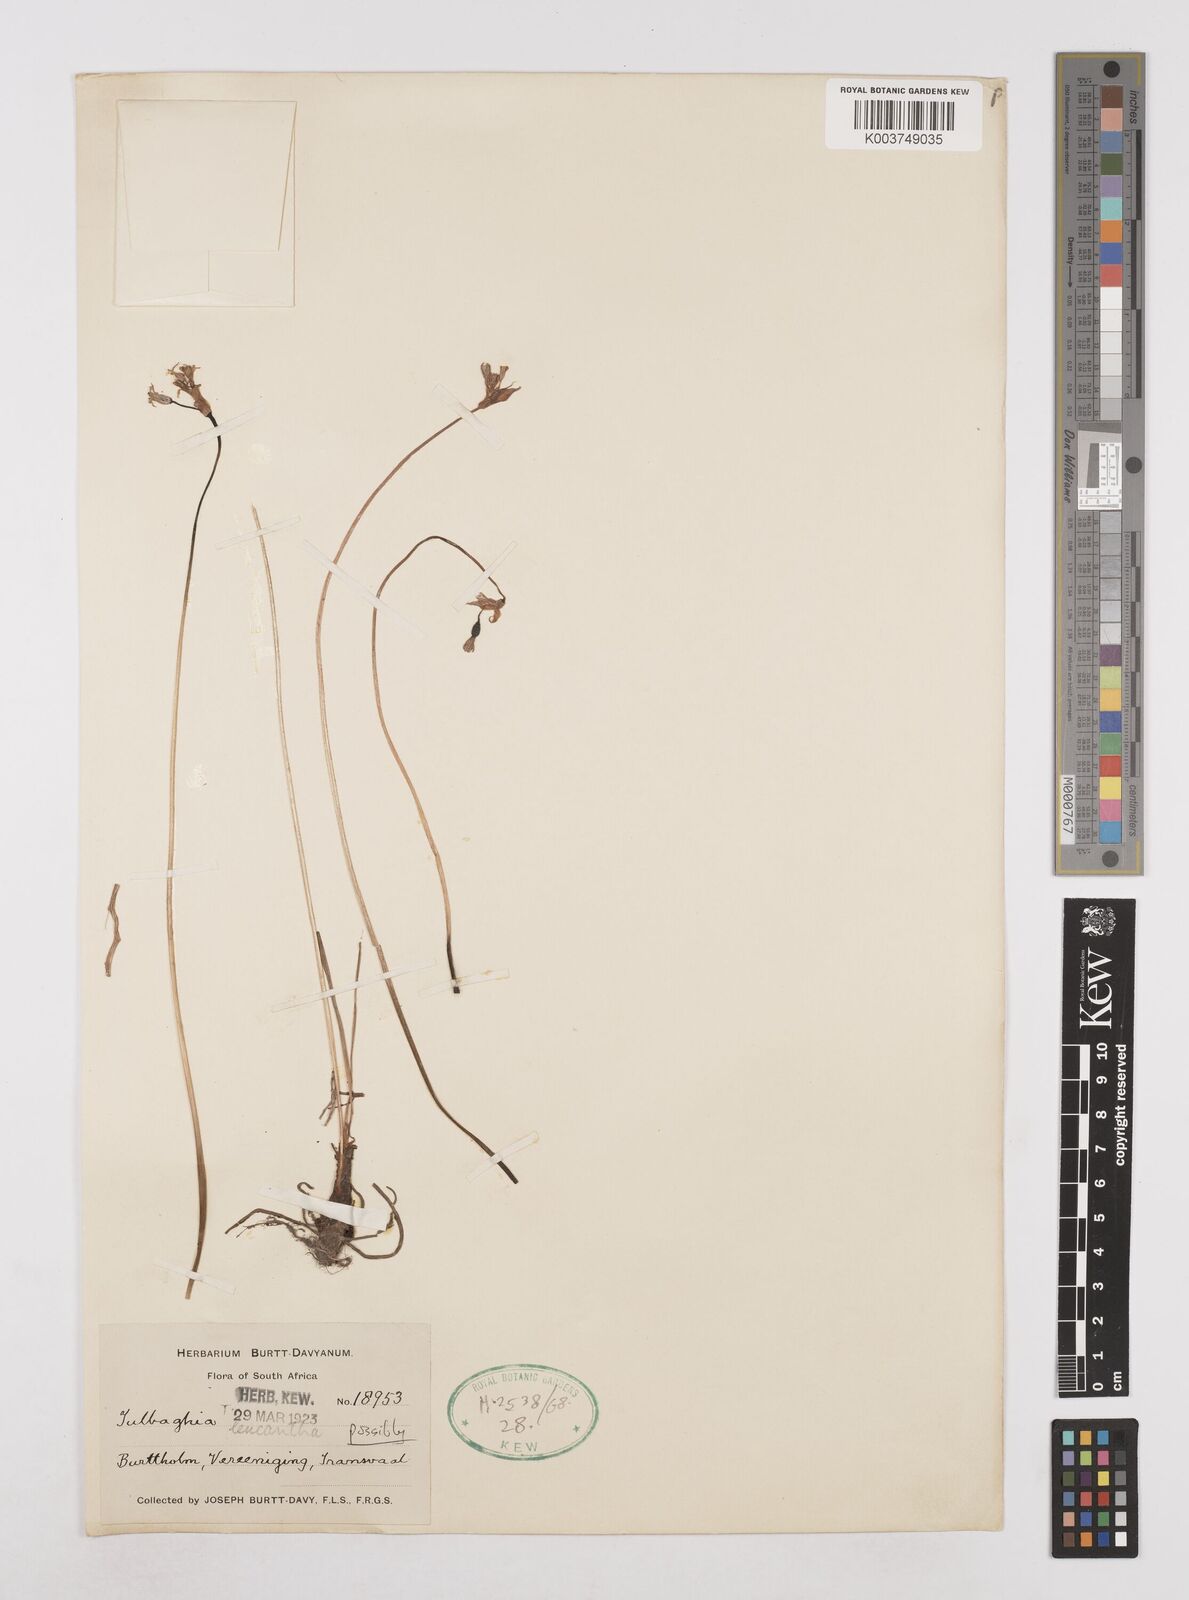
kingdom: Plantae
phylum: Tracheophyta
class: Liliopsida
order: Asparagales
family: Amaryllidaceae
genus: Tulbaghia
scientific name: Tulbaghia leucantha
